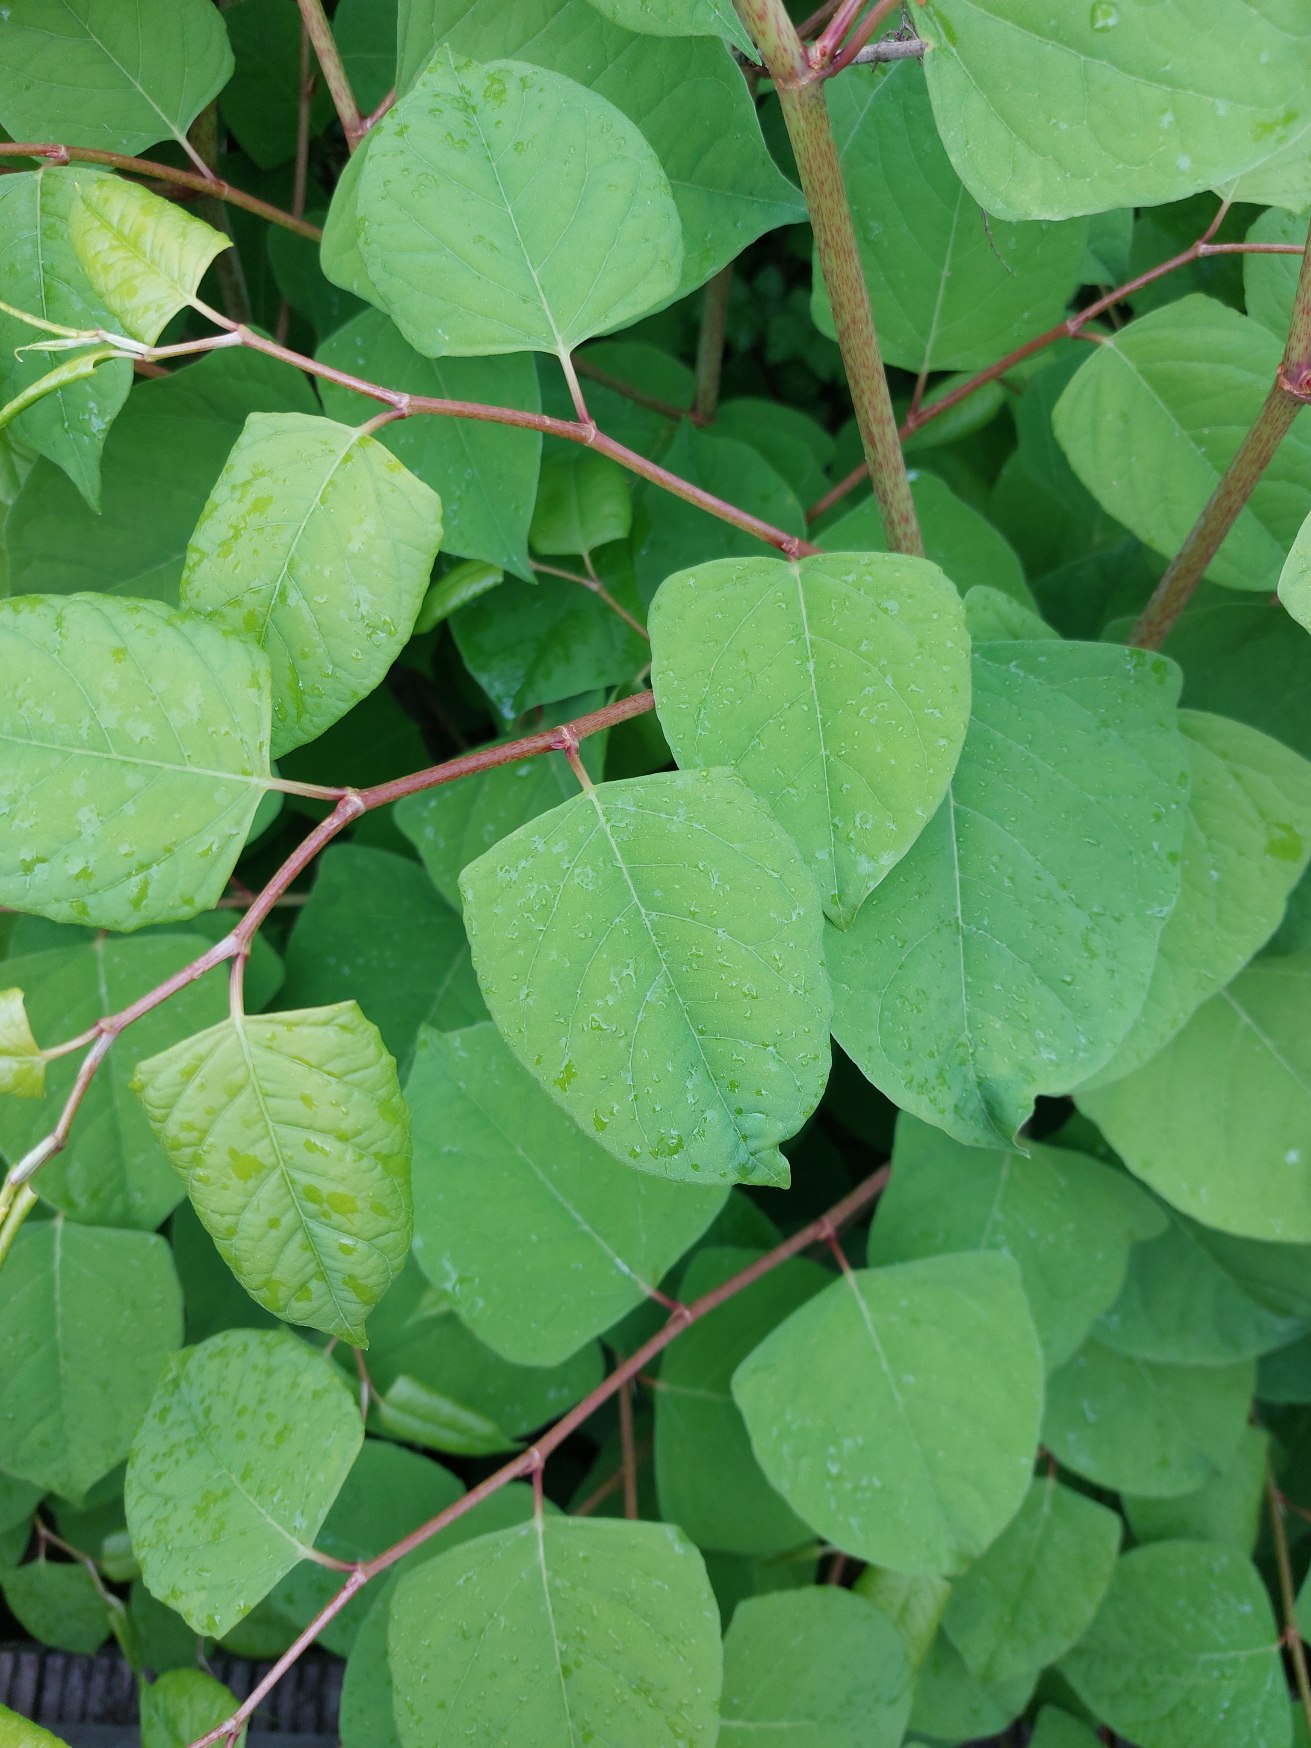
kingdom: Plantae
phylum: Tracheophyta
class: Magnoliopsida
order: Caryophyllales
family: Polygonaceae
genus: Reynoutria
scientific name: Reynoutria japonica
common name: Japan-pileurt
